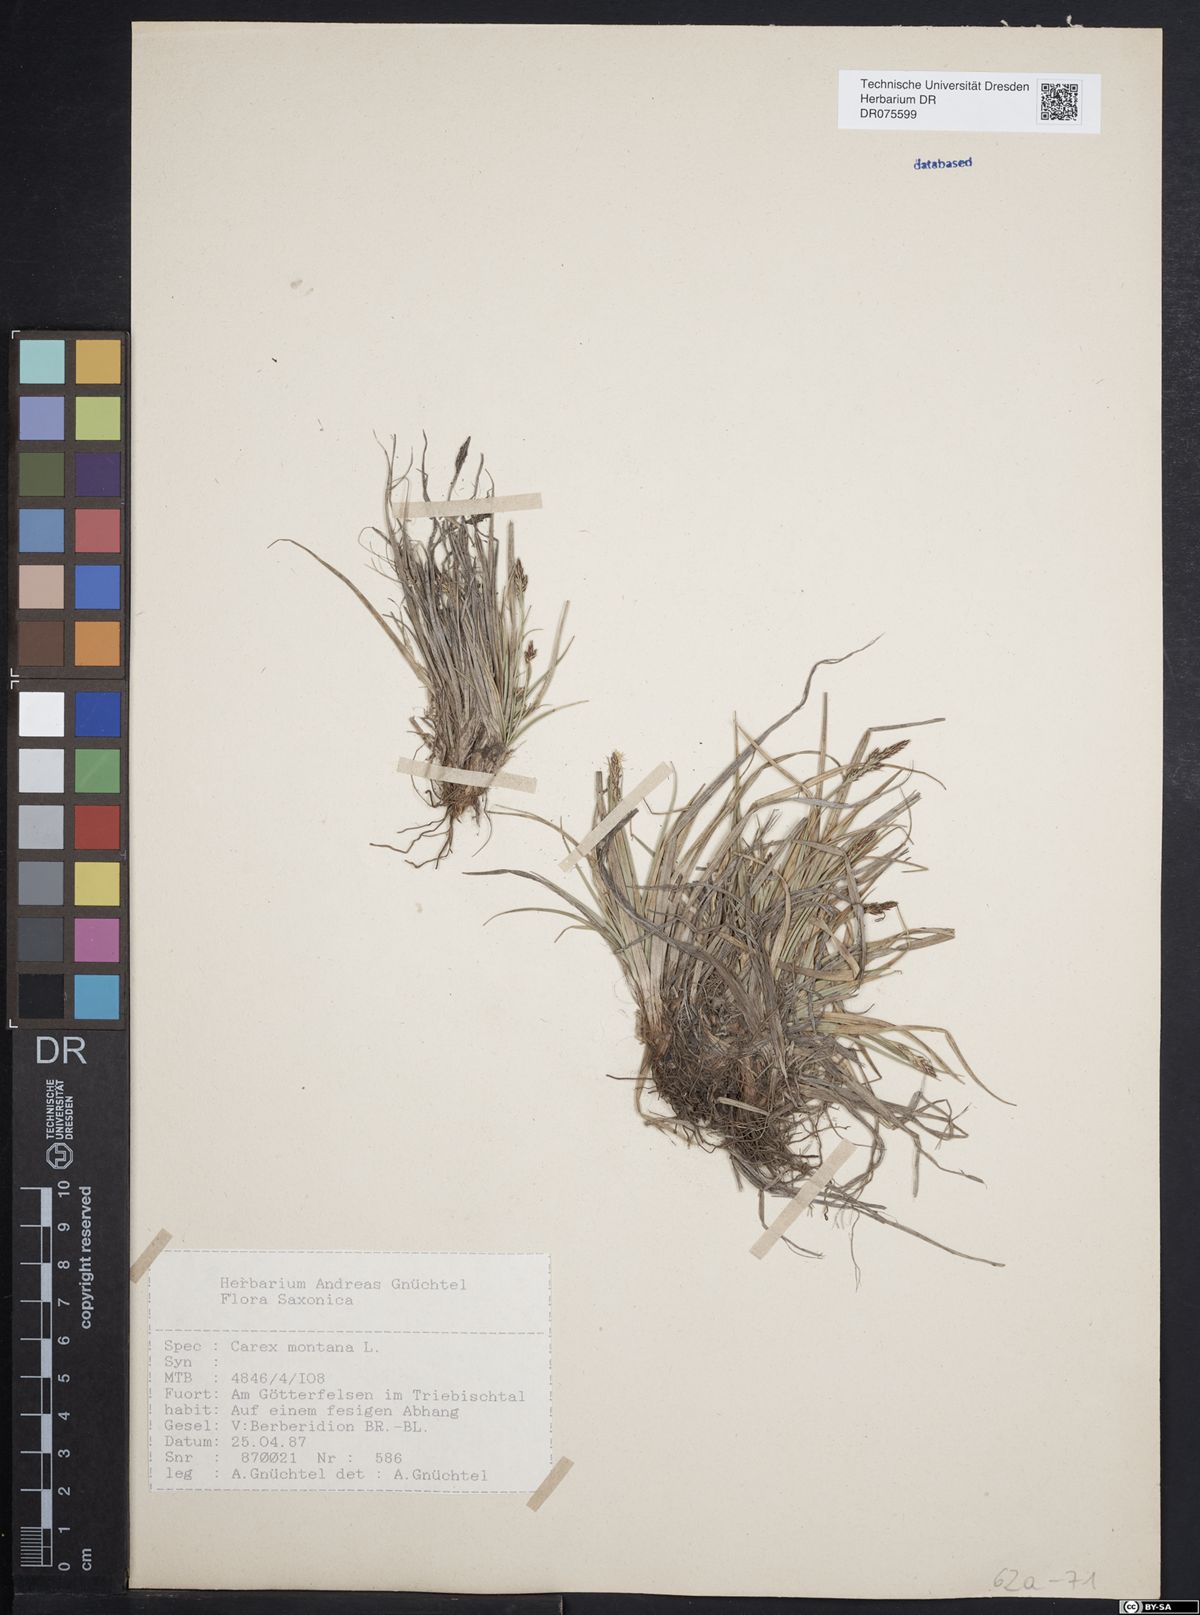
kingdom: Plantae
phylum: Tracheophyta
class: Liliopsida
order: Poales
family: Cyperaceae
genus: Carex
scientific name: Carex montana
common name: Soft-leaved sedge
